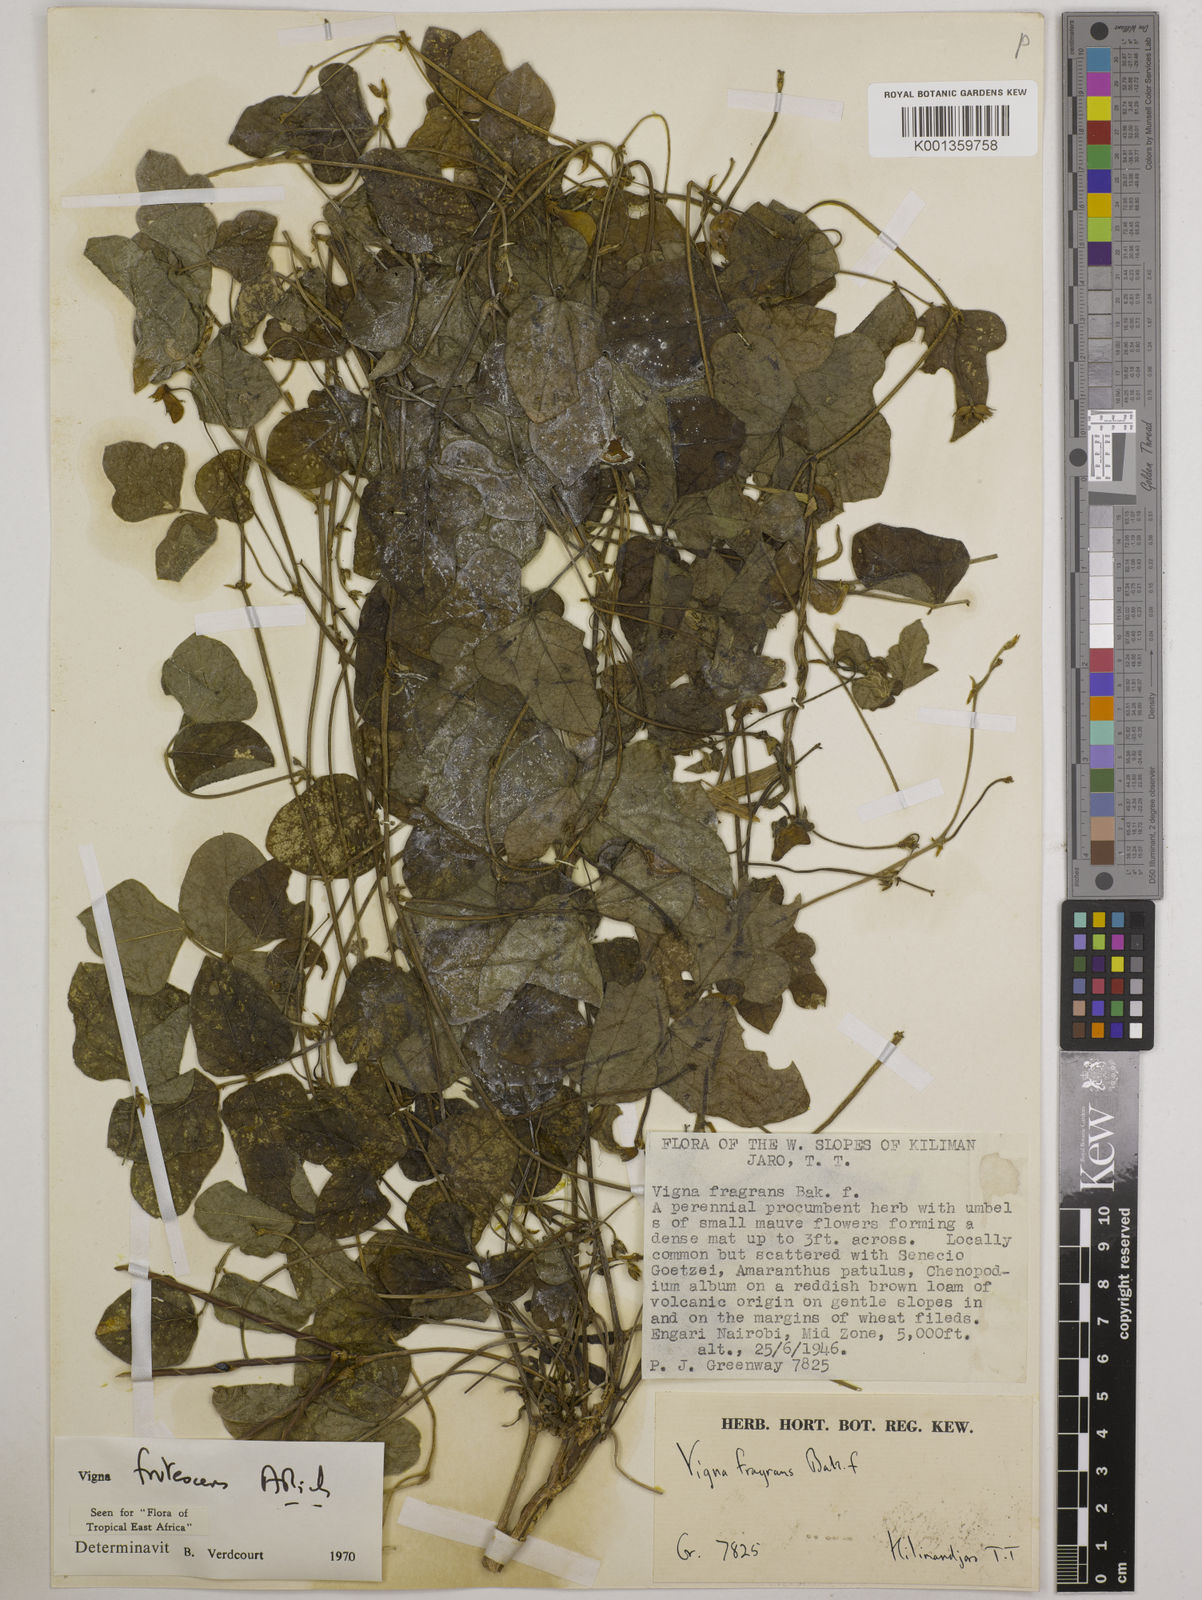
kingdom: Plantae
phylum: Tracheophyta
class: Magnoliopsida
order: Fabales
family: Fabaceae
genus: Vigna
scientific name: Vigna frutescens
